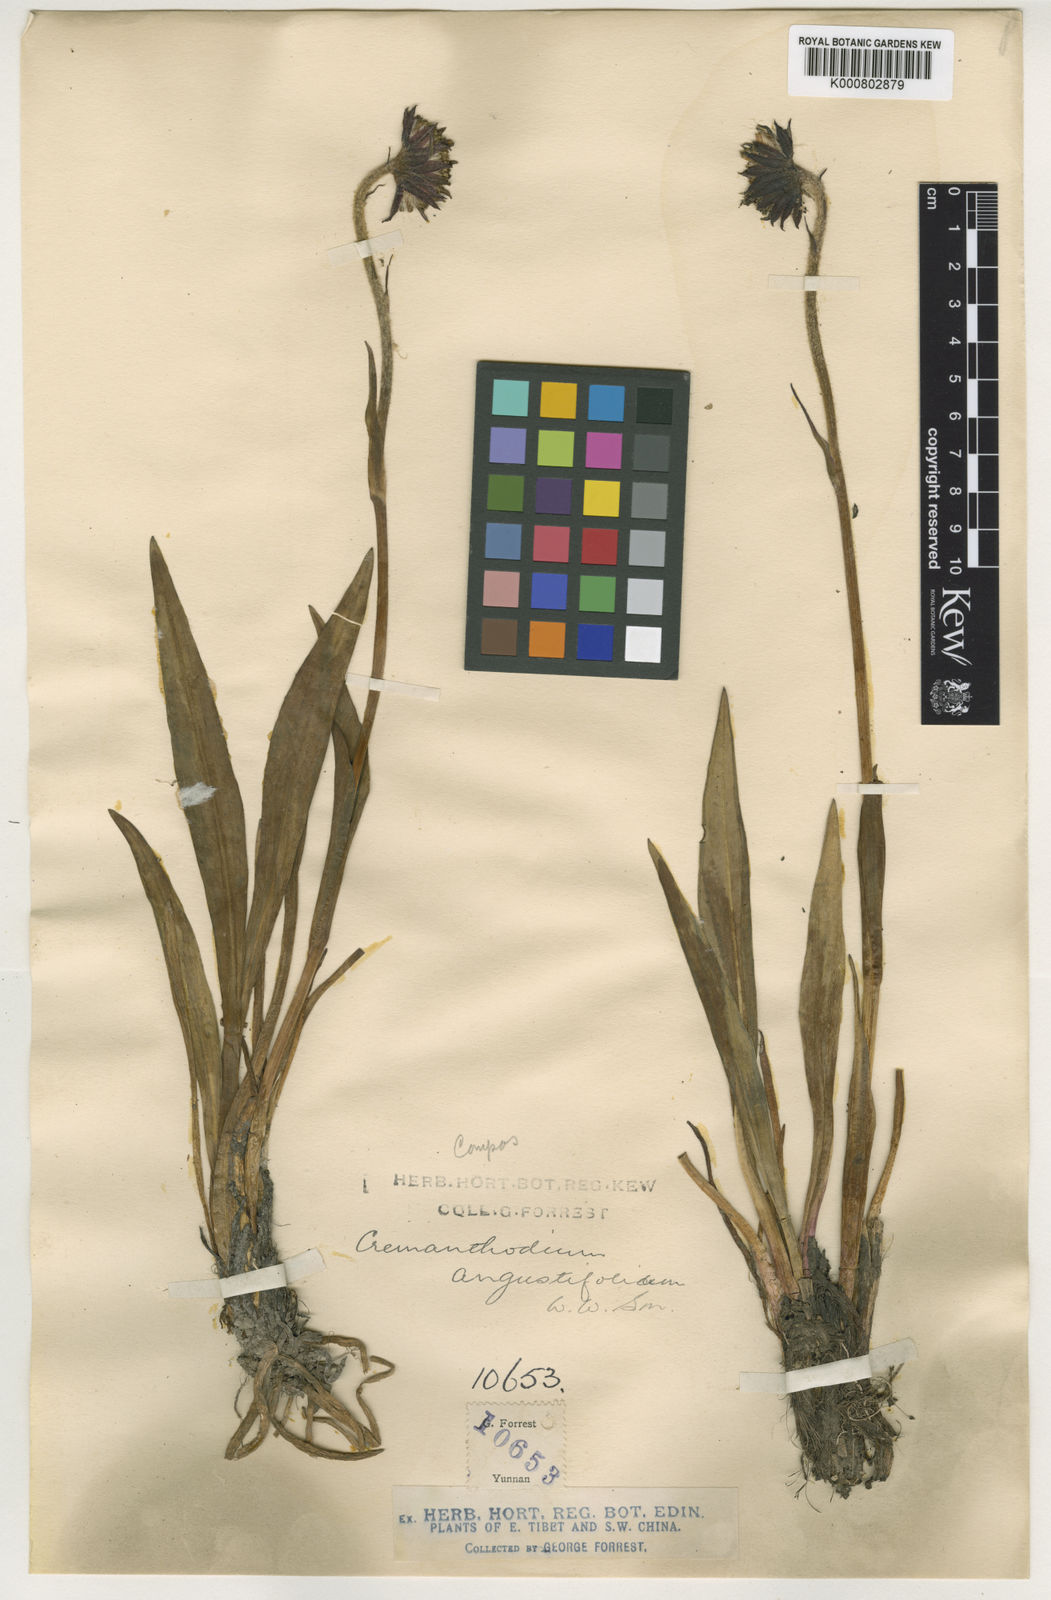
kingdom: Plantae
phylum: Tracheophyta
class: Magnoliopsida
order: Asterales
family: Asteraceae
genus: Cremanthodium
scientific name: Cremanthodium angustifolium
